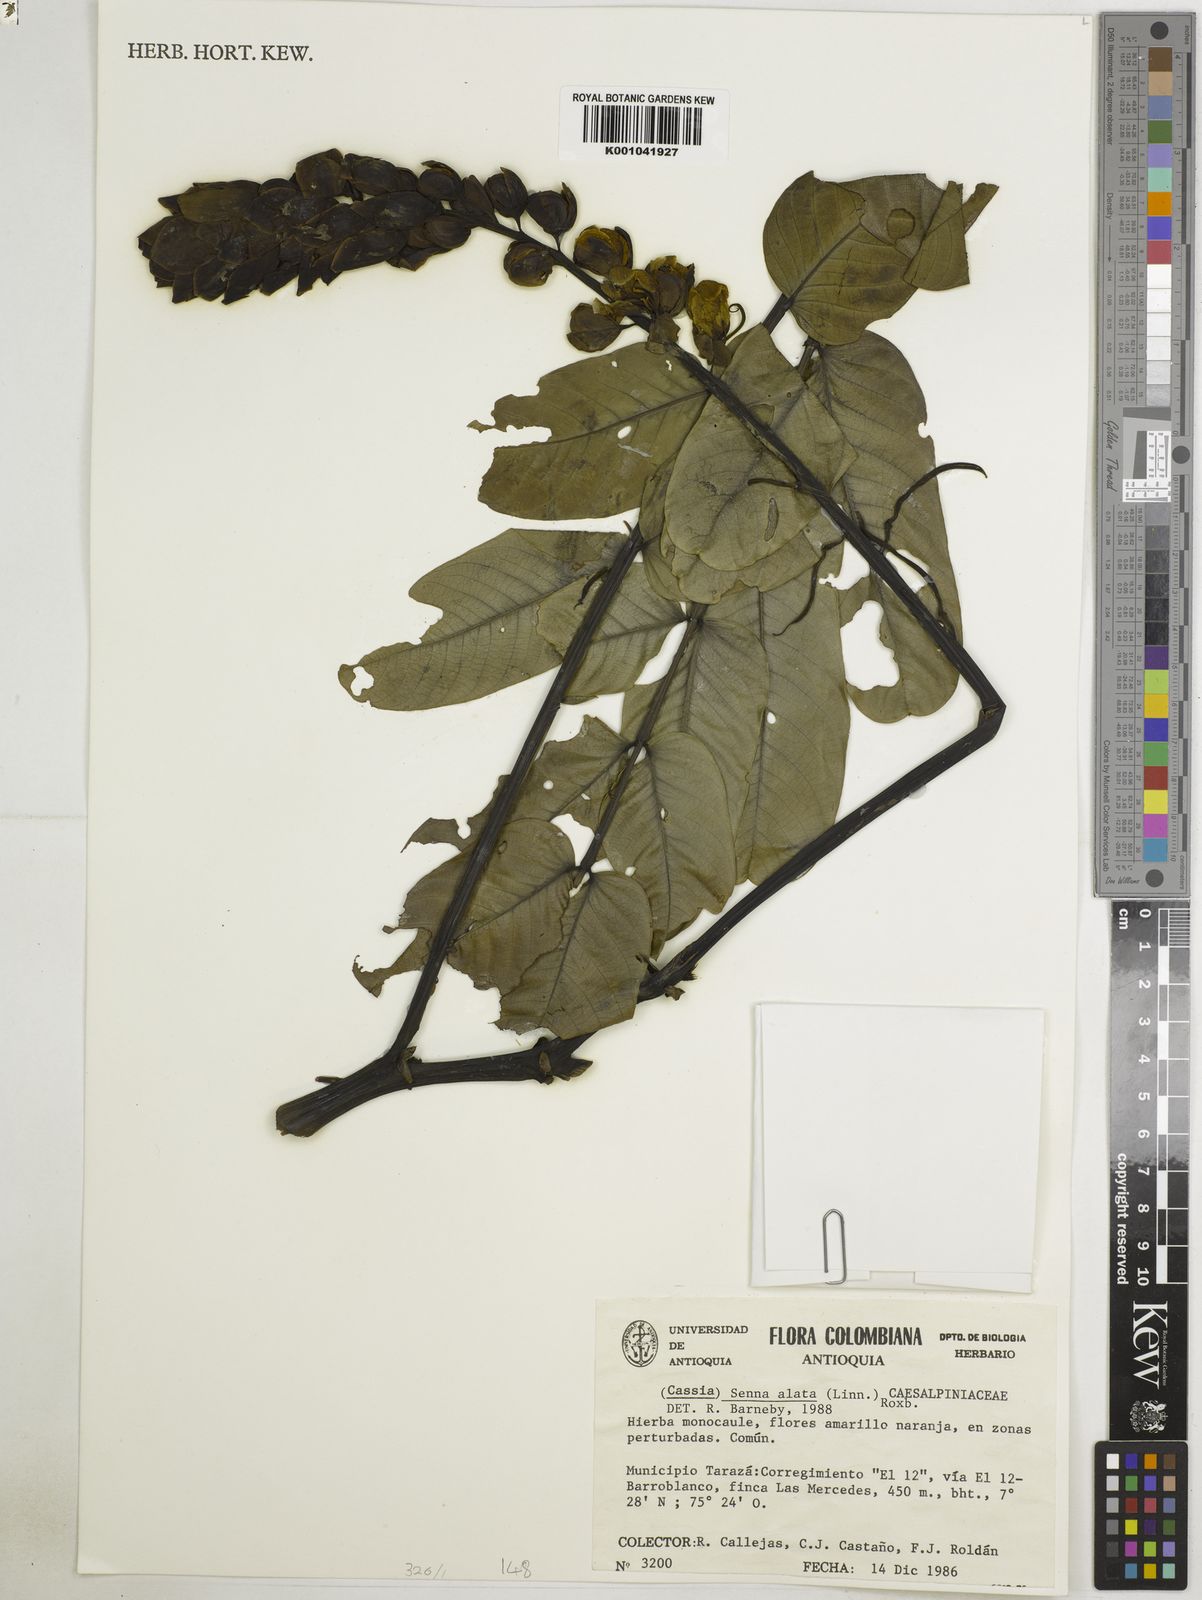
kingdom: Plantae
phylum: Tracheophyta
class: Magnoliopsida
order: Fabales
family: Fabaceae
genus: Senna
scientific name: Senna alata
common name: Emperor's candlesticks
